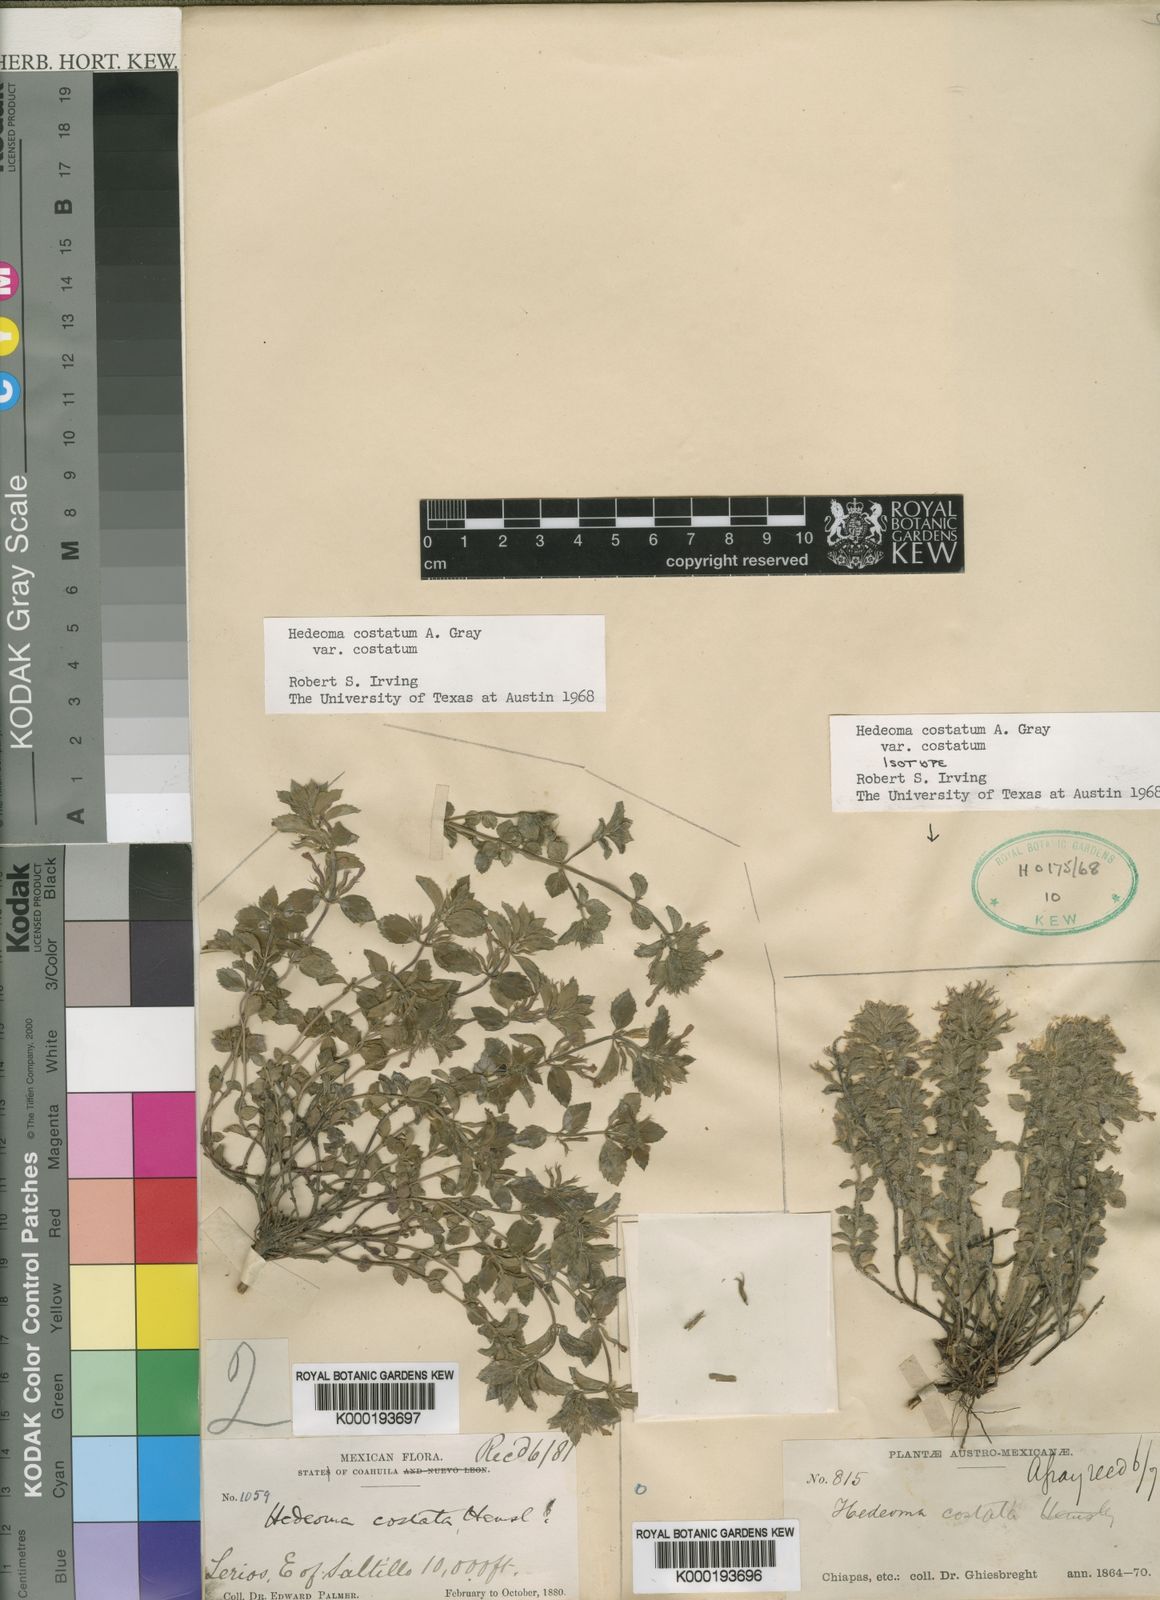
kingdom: Plantae
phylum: Tracheophyta
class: Magnoliopsida
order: Lamiales
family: Lamiaceae
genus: Hedeoma
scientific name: Hedeoma
